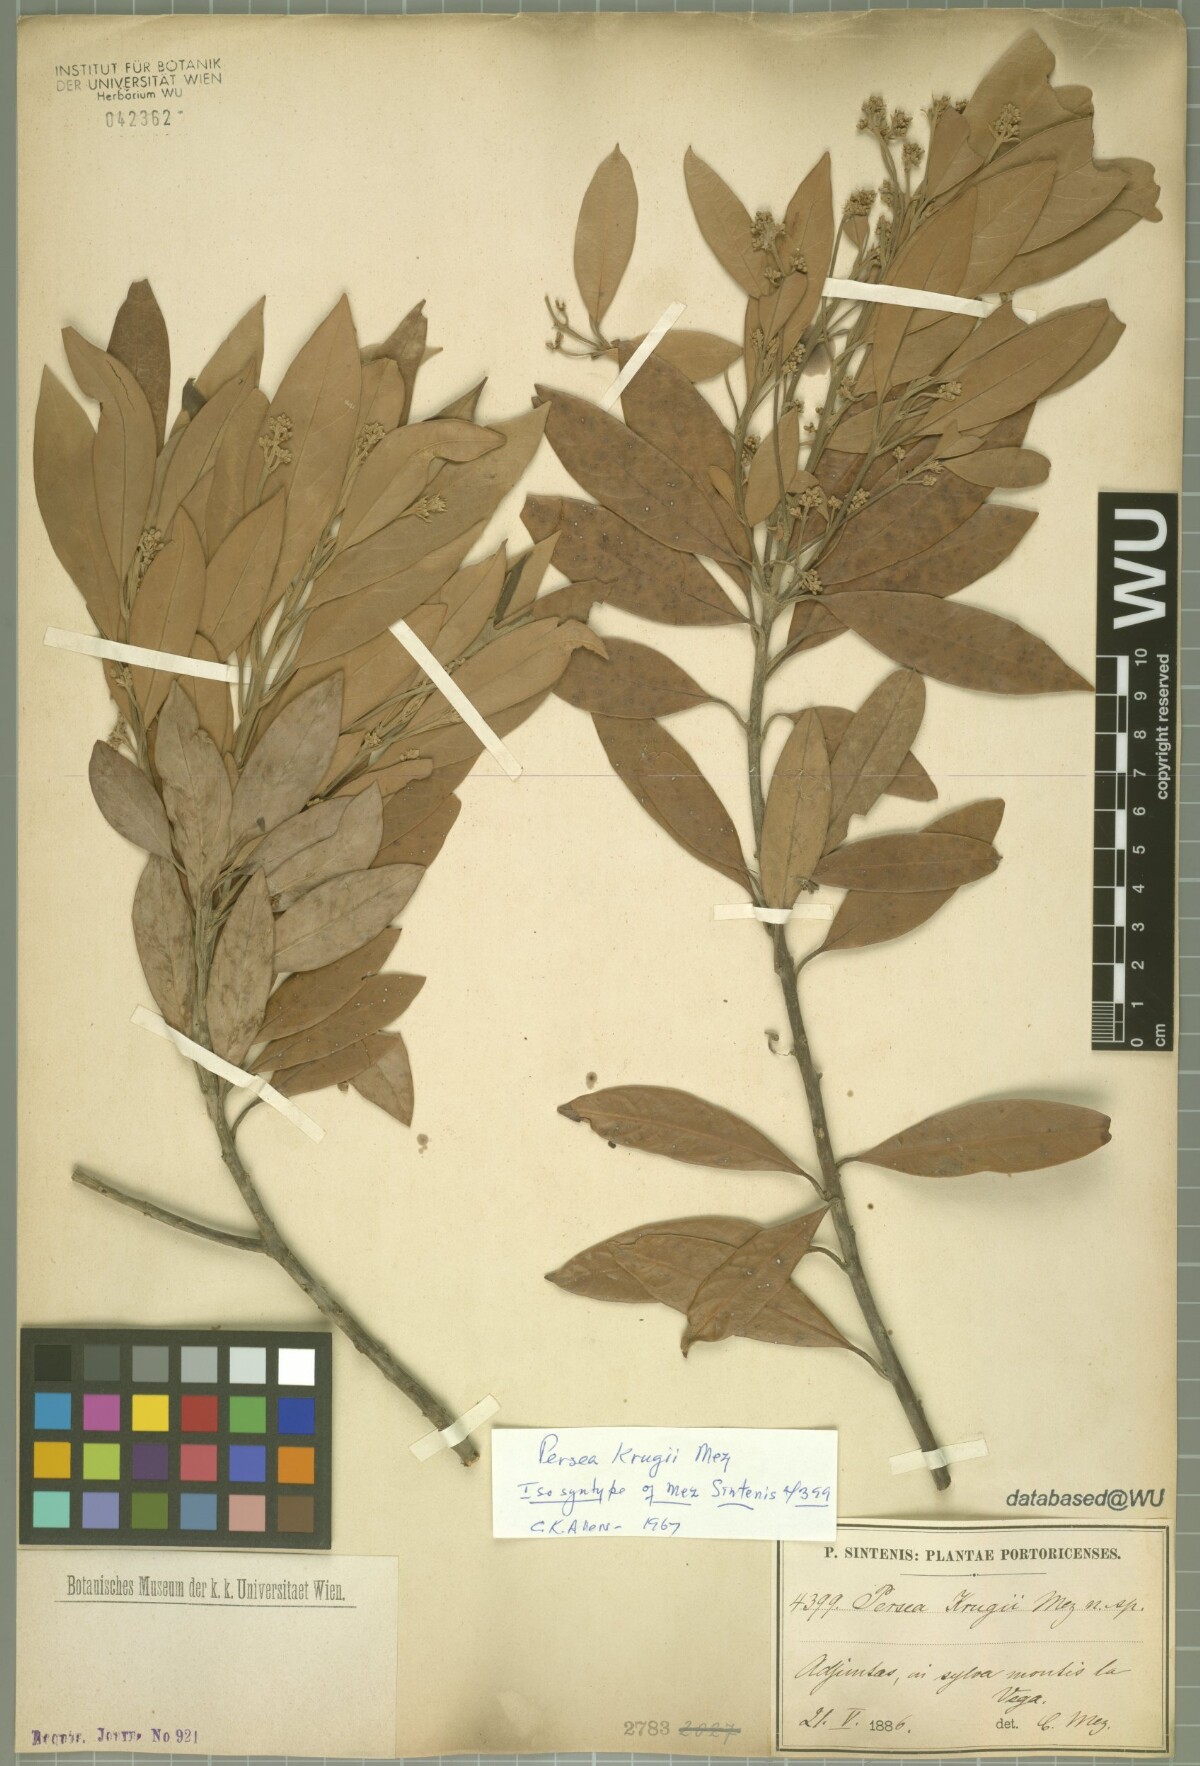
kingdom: Plantae
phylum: Tracheophyta
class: Magnoliopsida
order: Laurales
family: Lauraceae
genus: Persea
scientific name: Persea krugii
